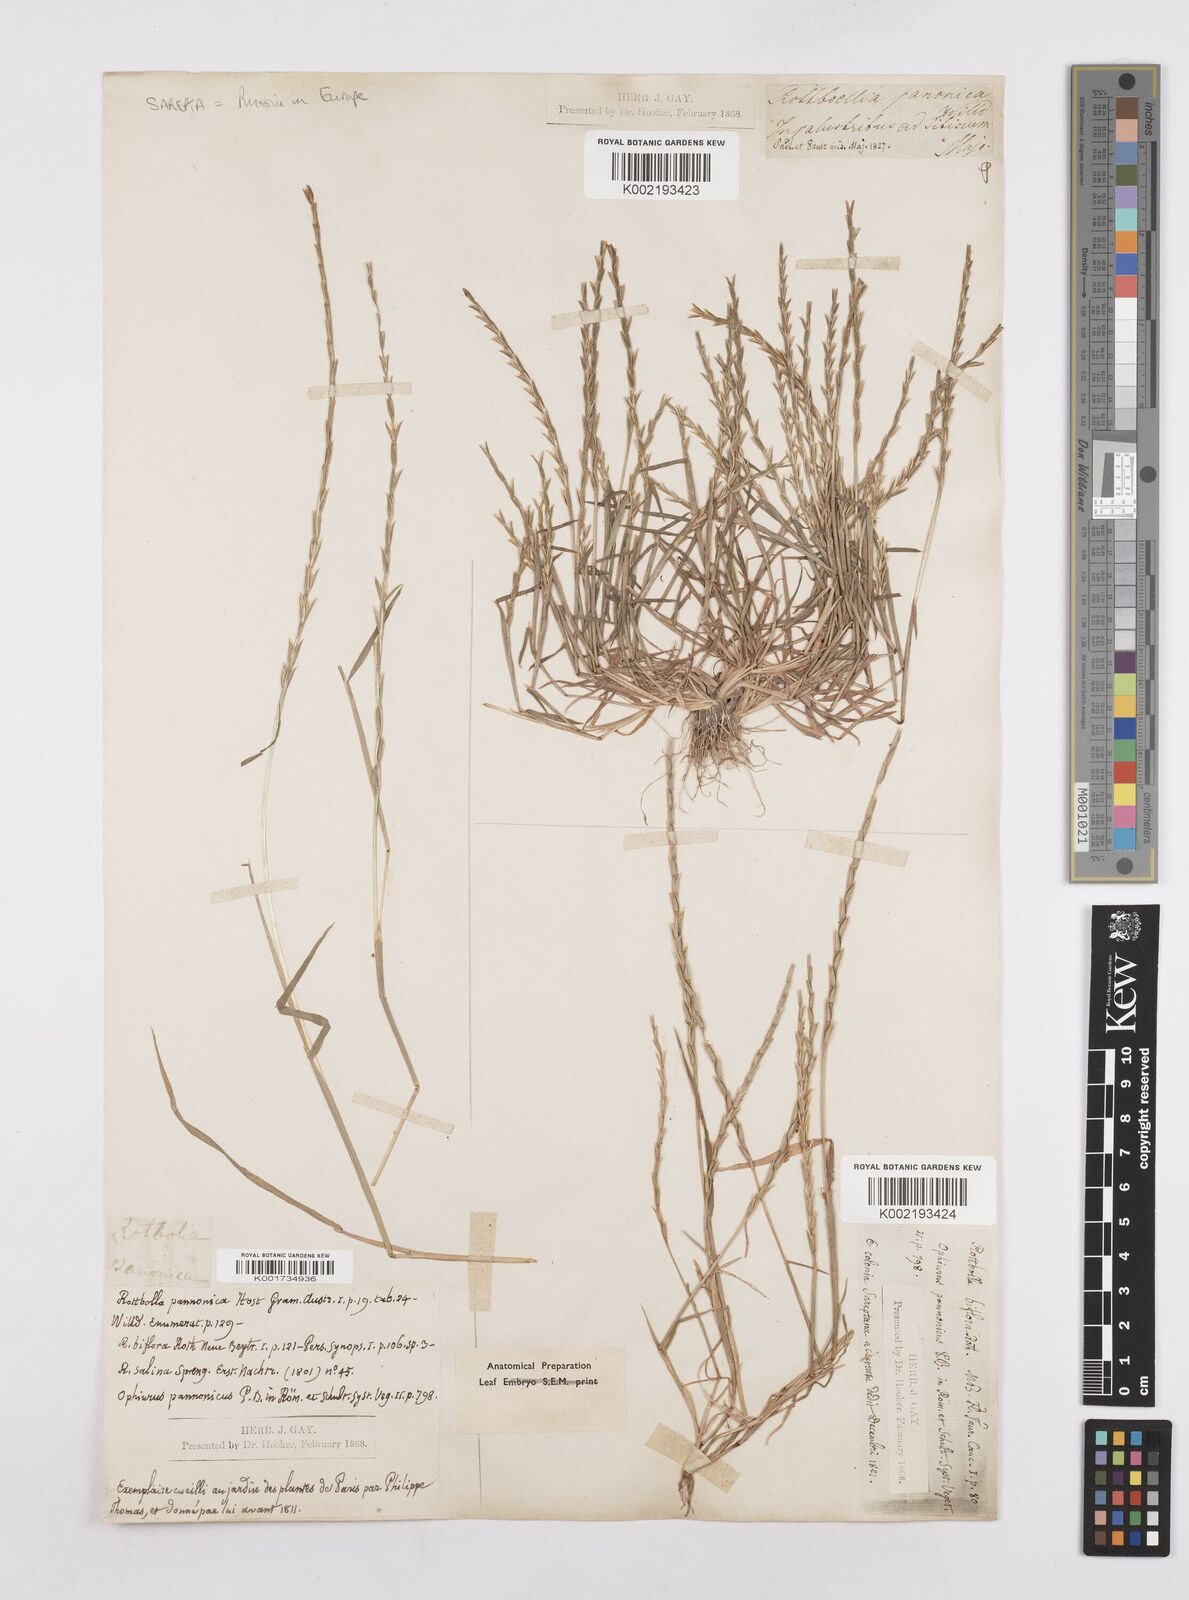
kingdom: Plantae
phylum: Tracheophyta
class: Liliopsida
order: Poales
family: Poaceae
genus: Pholiurus
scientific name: Pholiurus pannonicus
